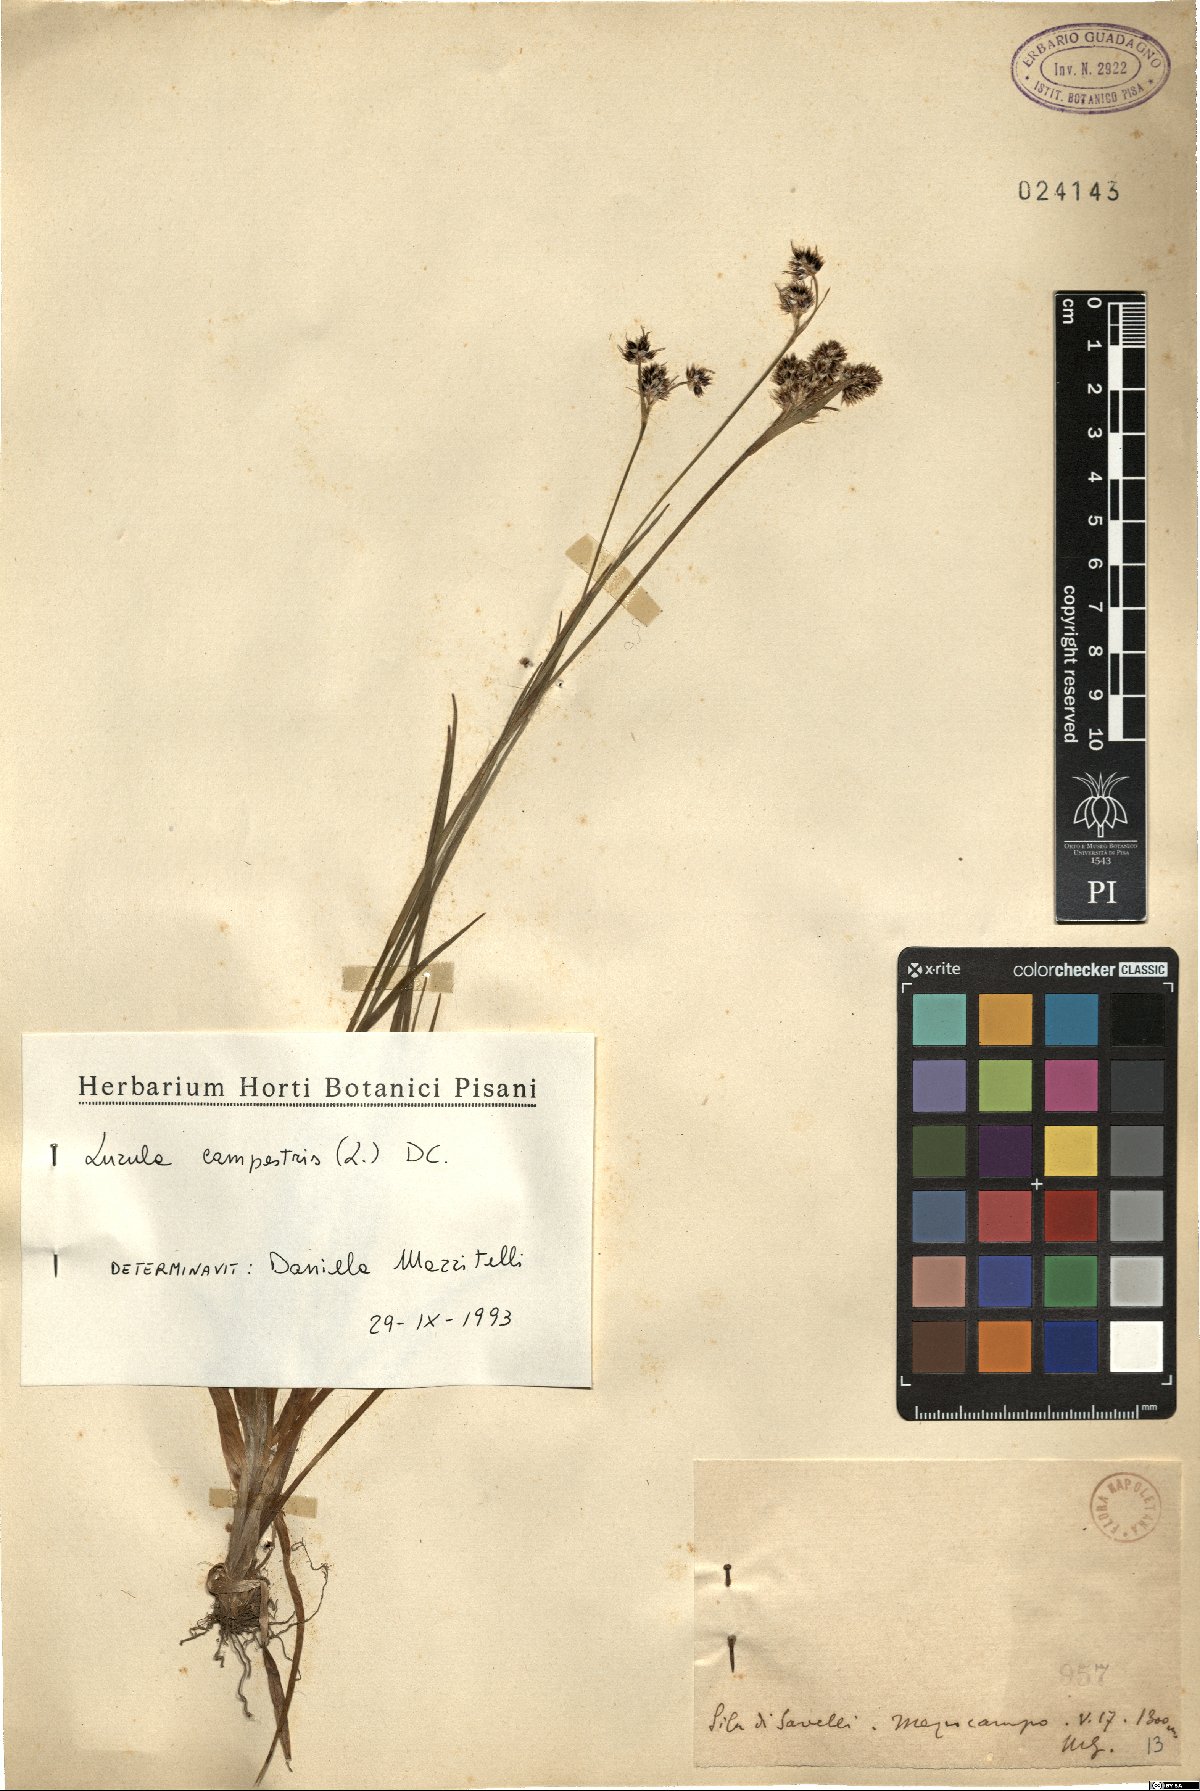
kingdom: Plantae
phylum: Tracheophyta
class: Liliopsida
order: Poales
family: Juncaceae
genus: Luzula
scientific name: Luzula campestris
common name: Field wood-rush
